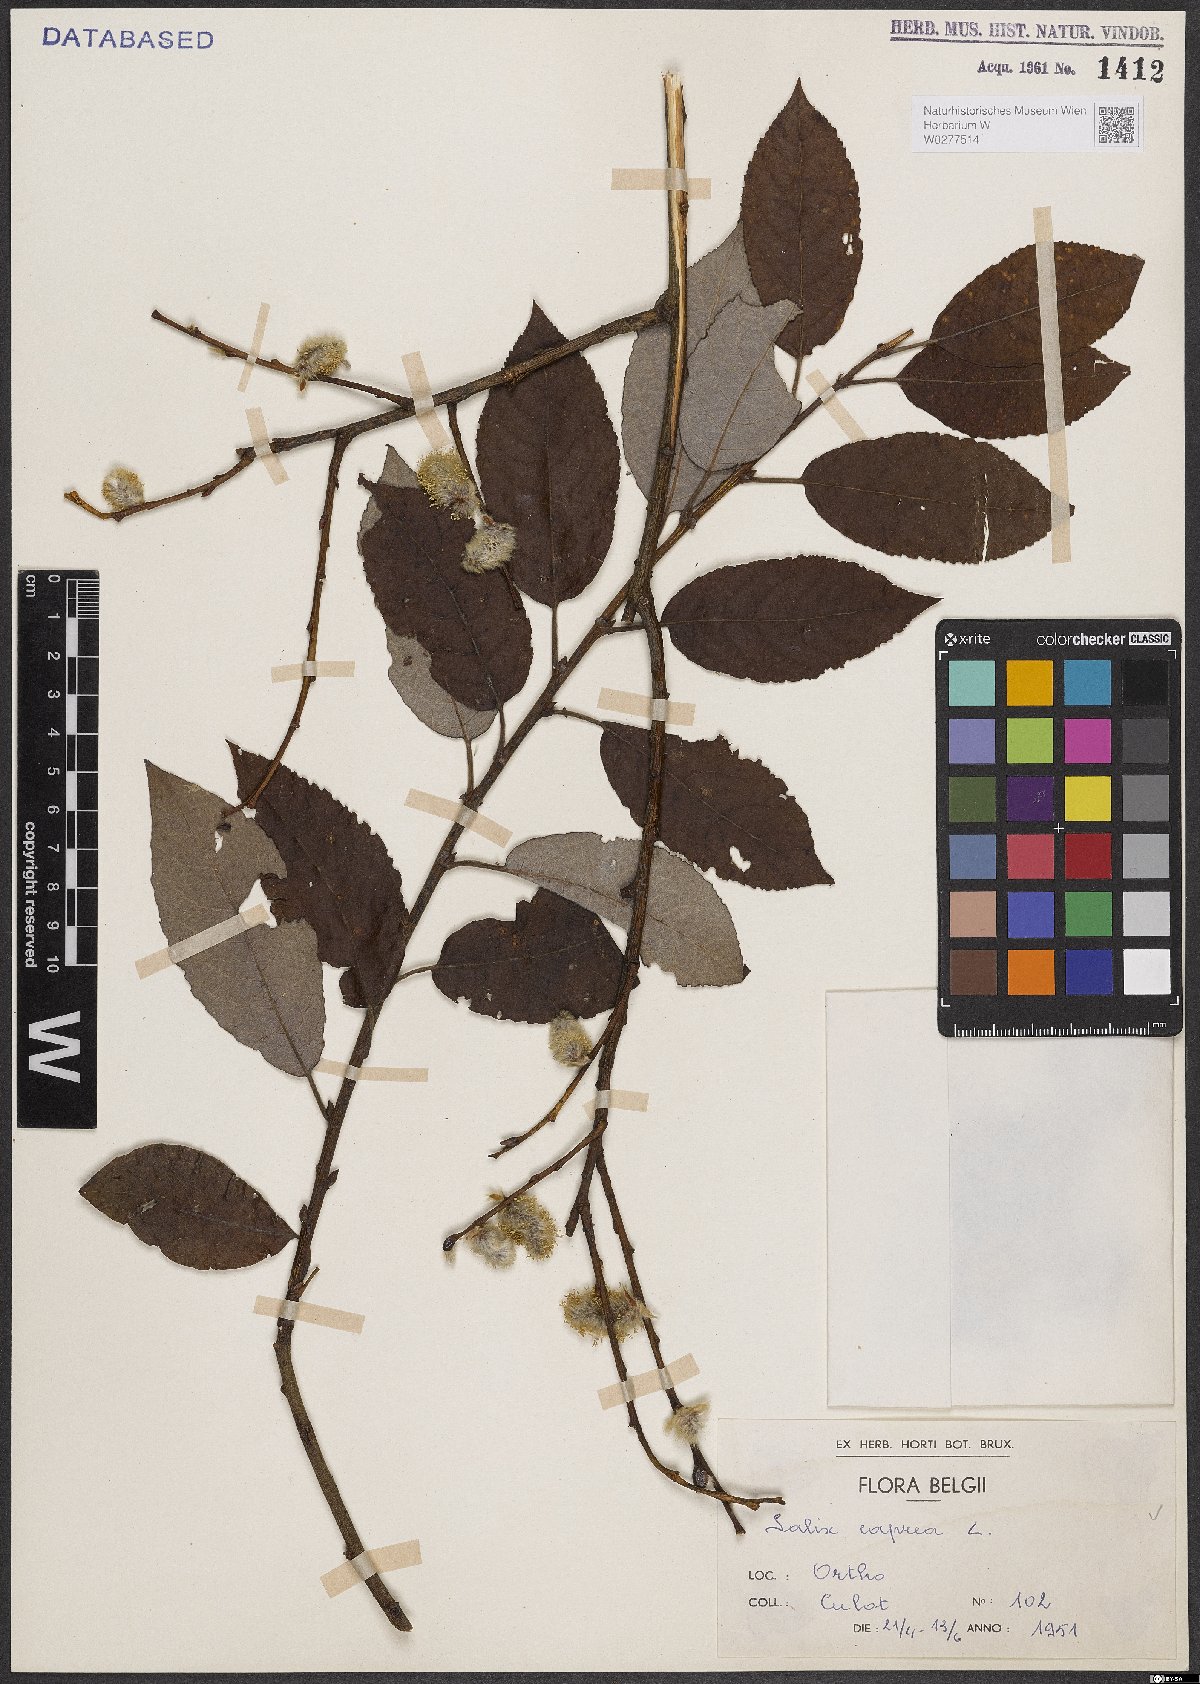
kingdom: Plantae
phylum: Tracheophyta
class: Magnoliopsida
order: Malpighiales
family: Salicaceae
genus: Salix
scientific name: Salix caprea
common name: Goat willow
